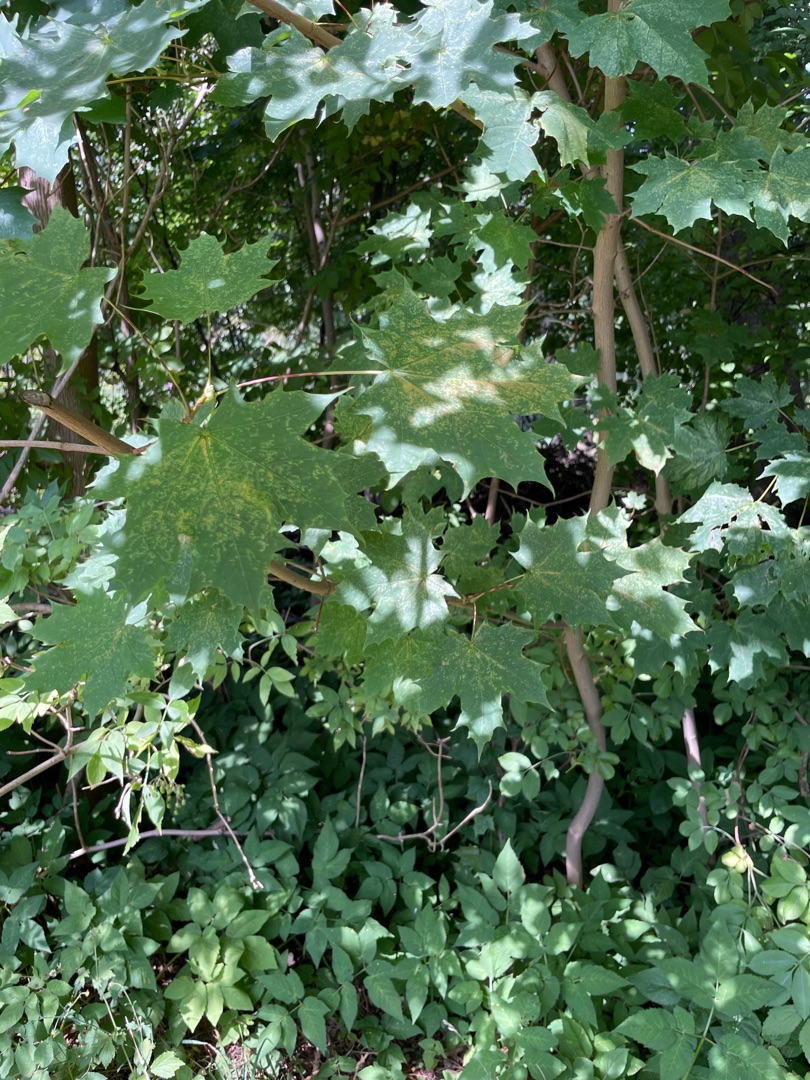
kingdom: Plantae
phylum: Tracheophyta
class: Magnoliopsida
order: Sapindales
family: Sapindaceae
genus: Acer
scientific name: Acer platanoides
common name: Spids-løn
